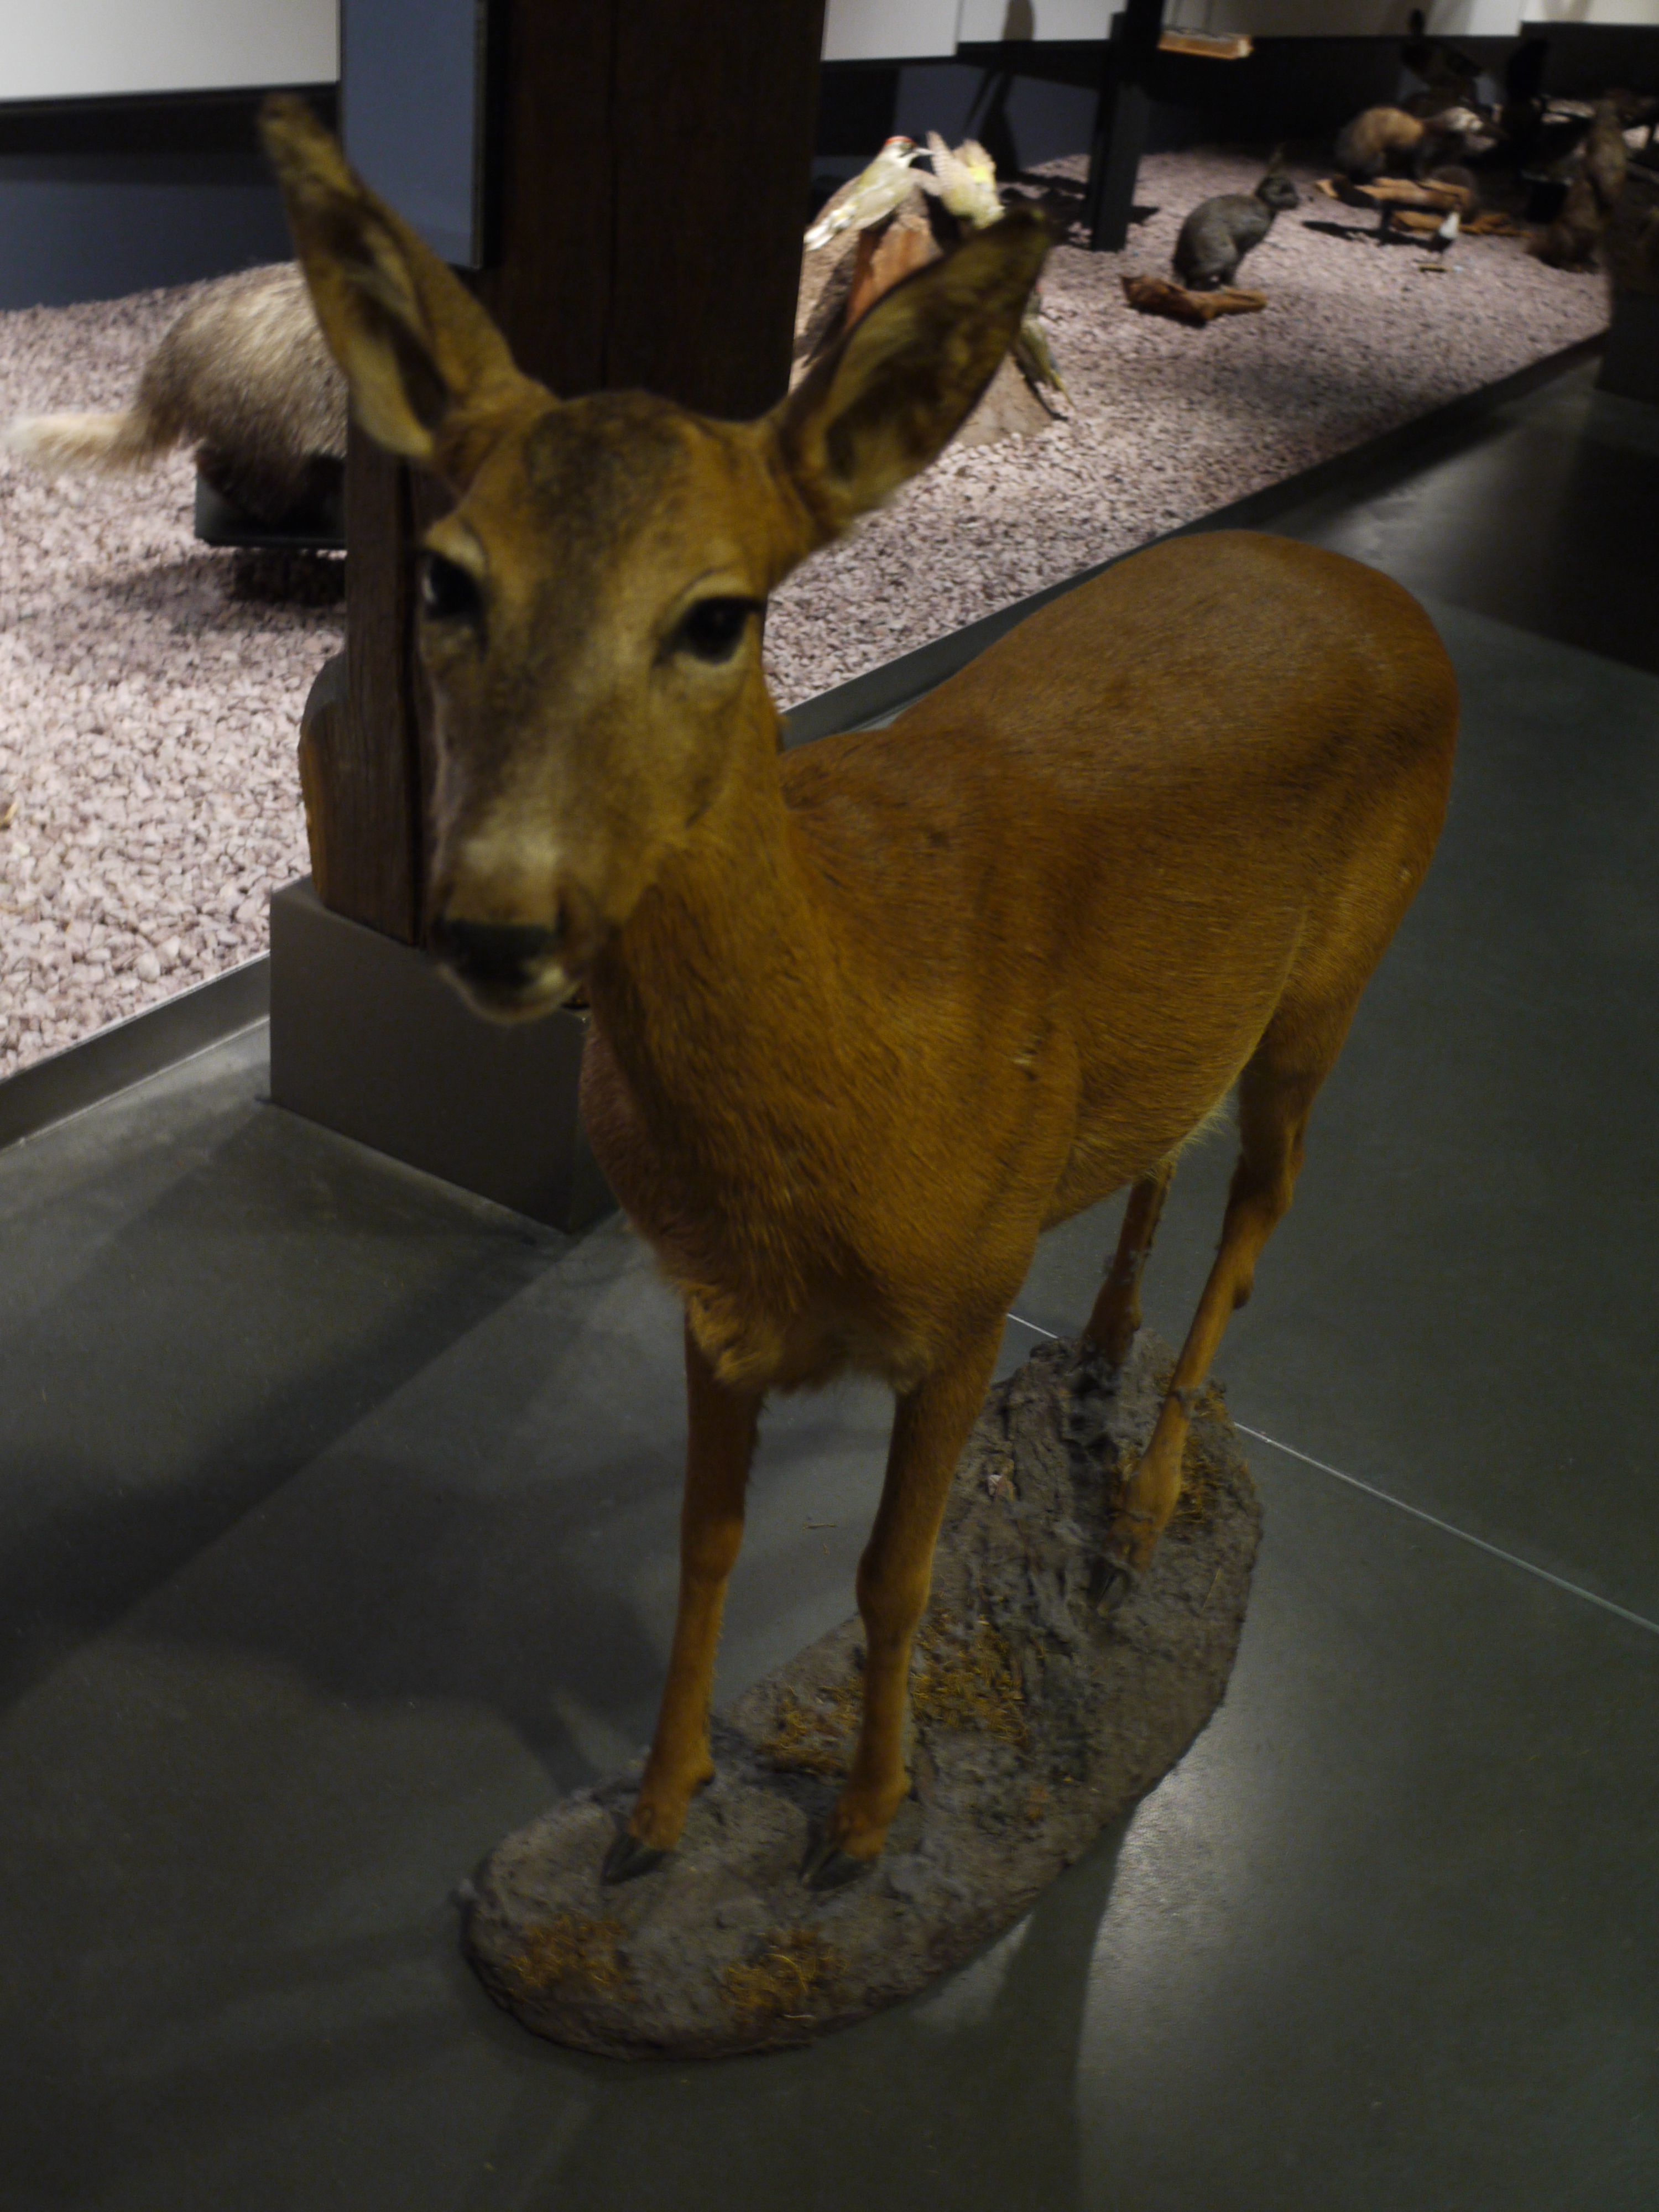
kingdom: Animalia
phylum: Chordata
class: Mammalia
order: Artiodactyla
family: Cervidae
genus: Capreolus
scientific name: Capreolus capreolus
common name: Western roe deer
